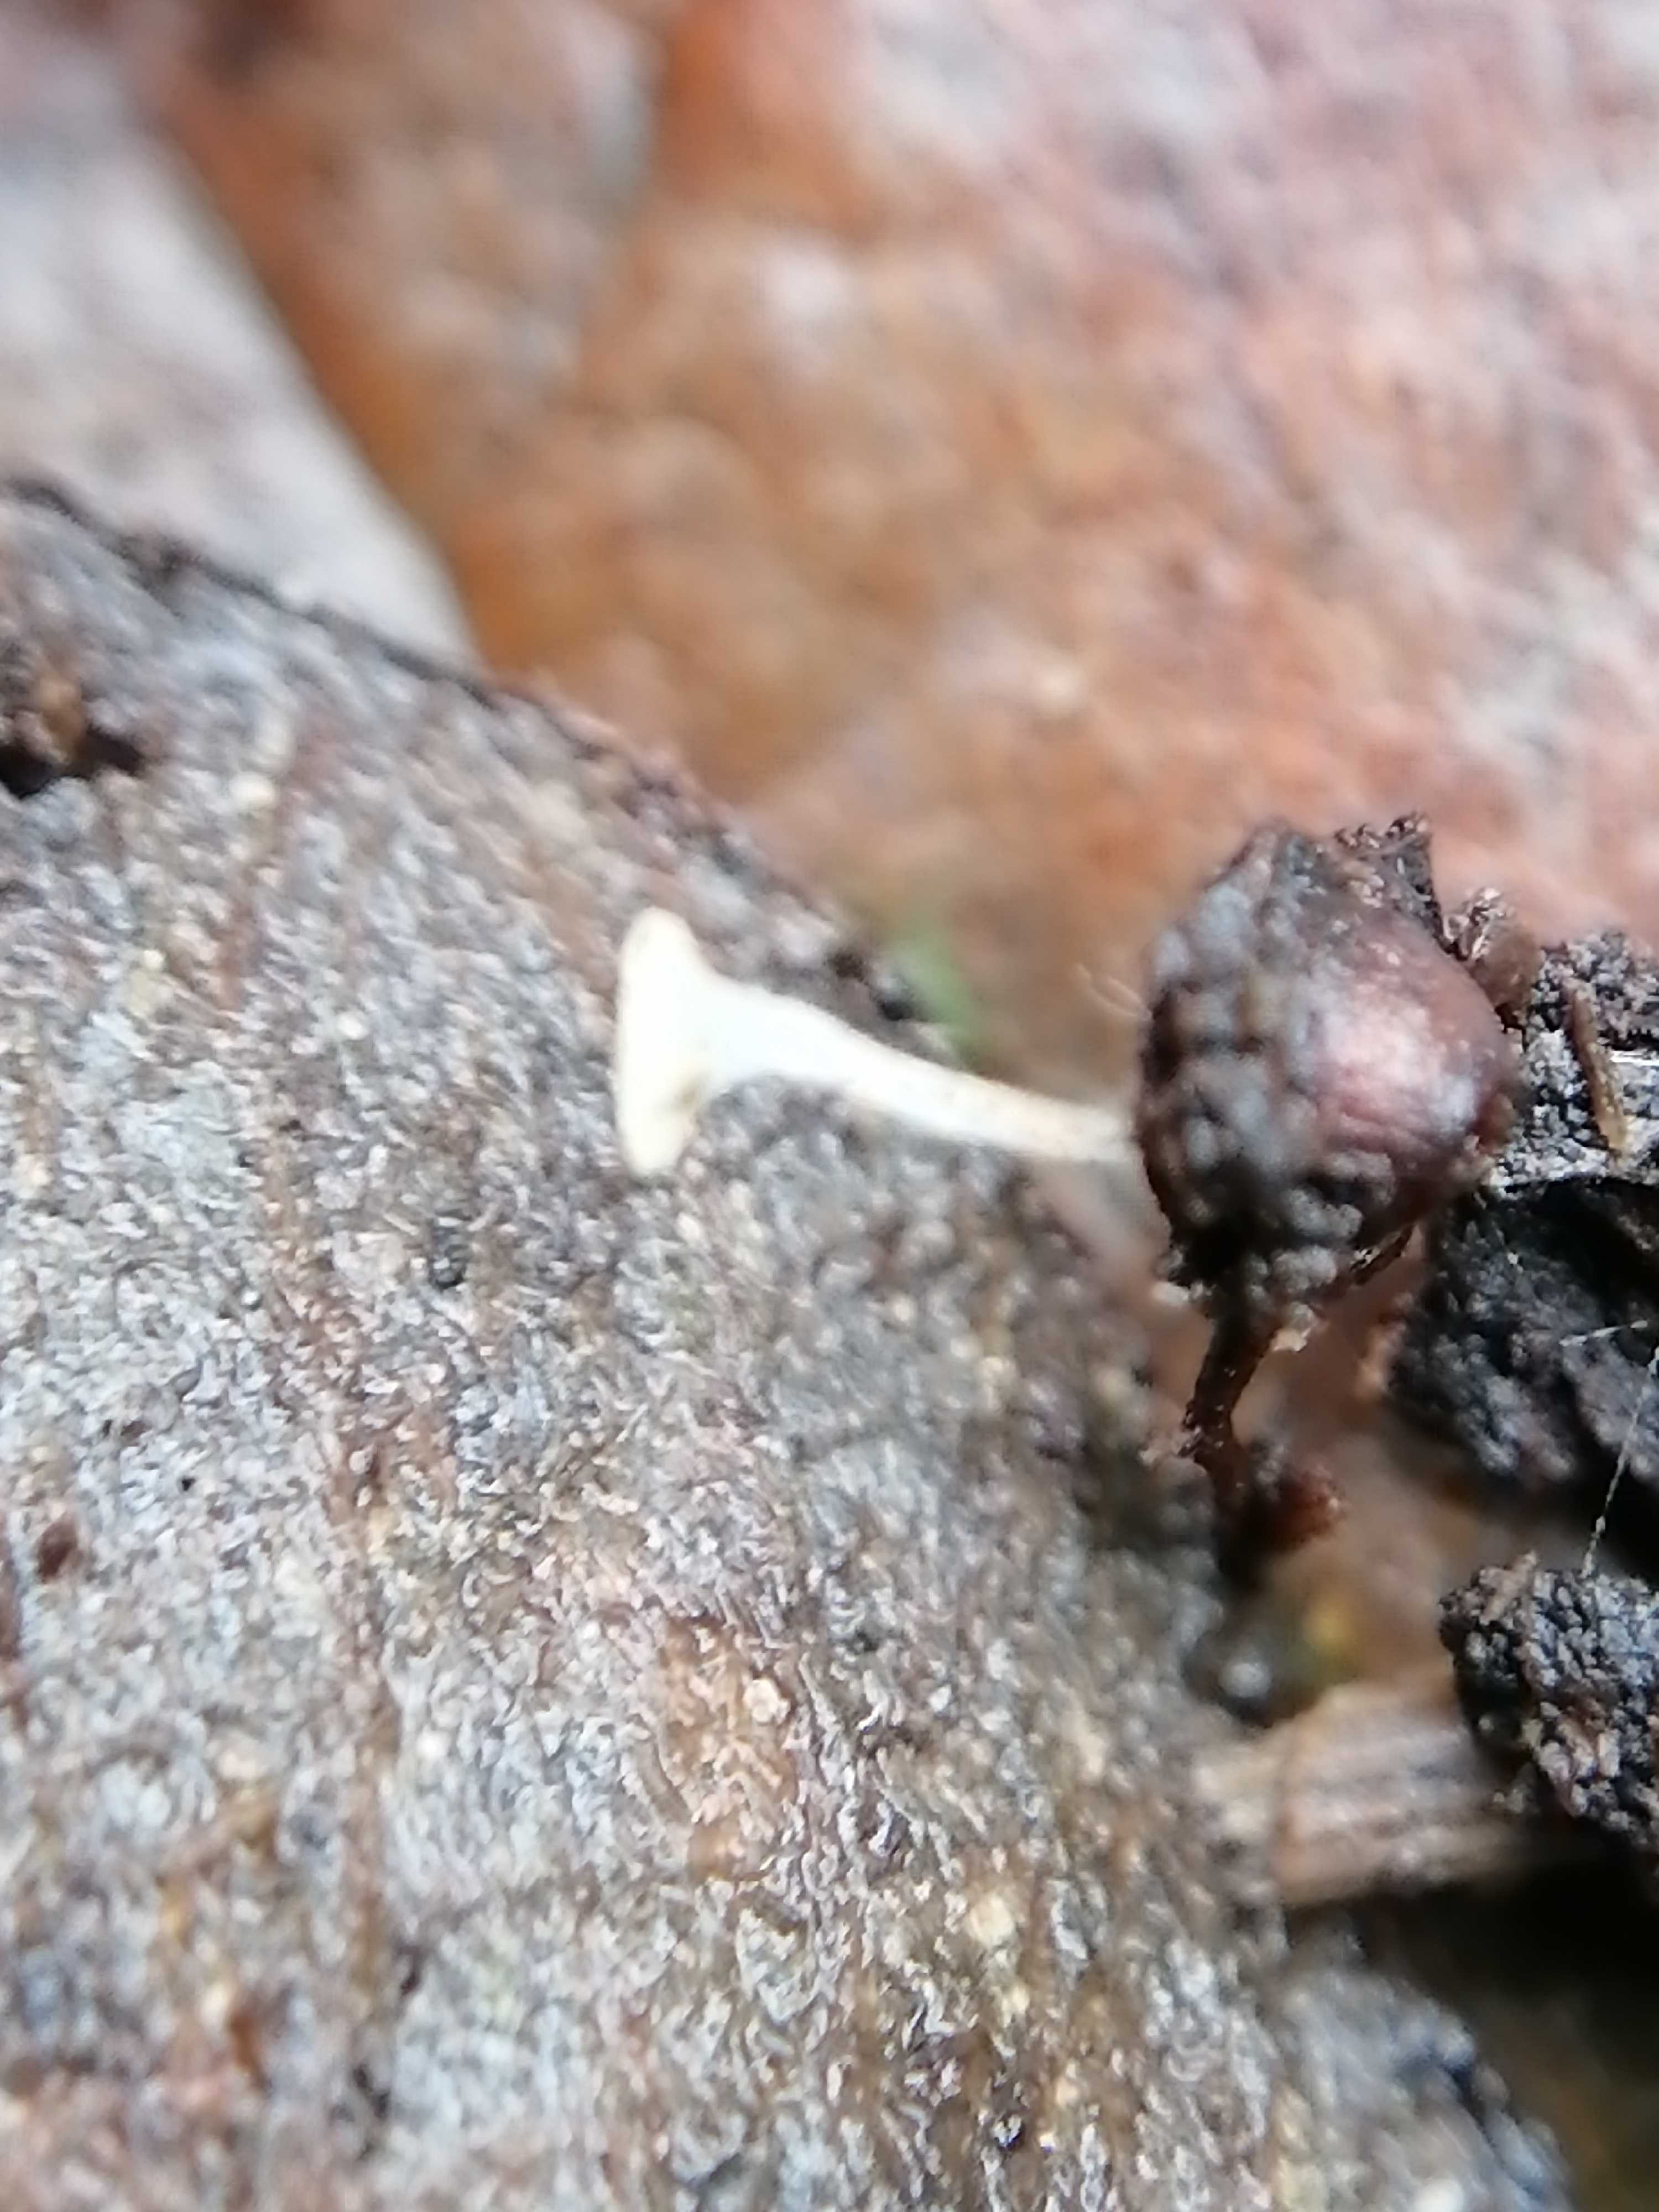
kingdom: Fungi
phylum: Ascomycota
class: Leotiomycetes
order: Helotiales
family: Helotiaceae
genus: Hymenoscyphus
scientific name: Hymenoscyphus
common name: stilkskive
